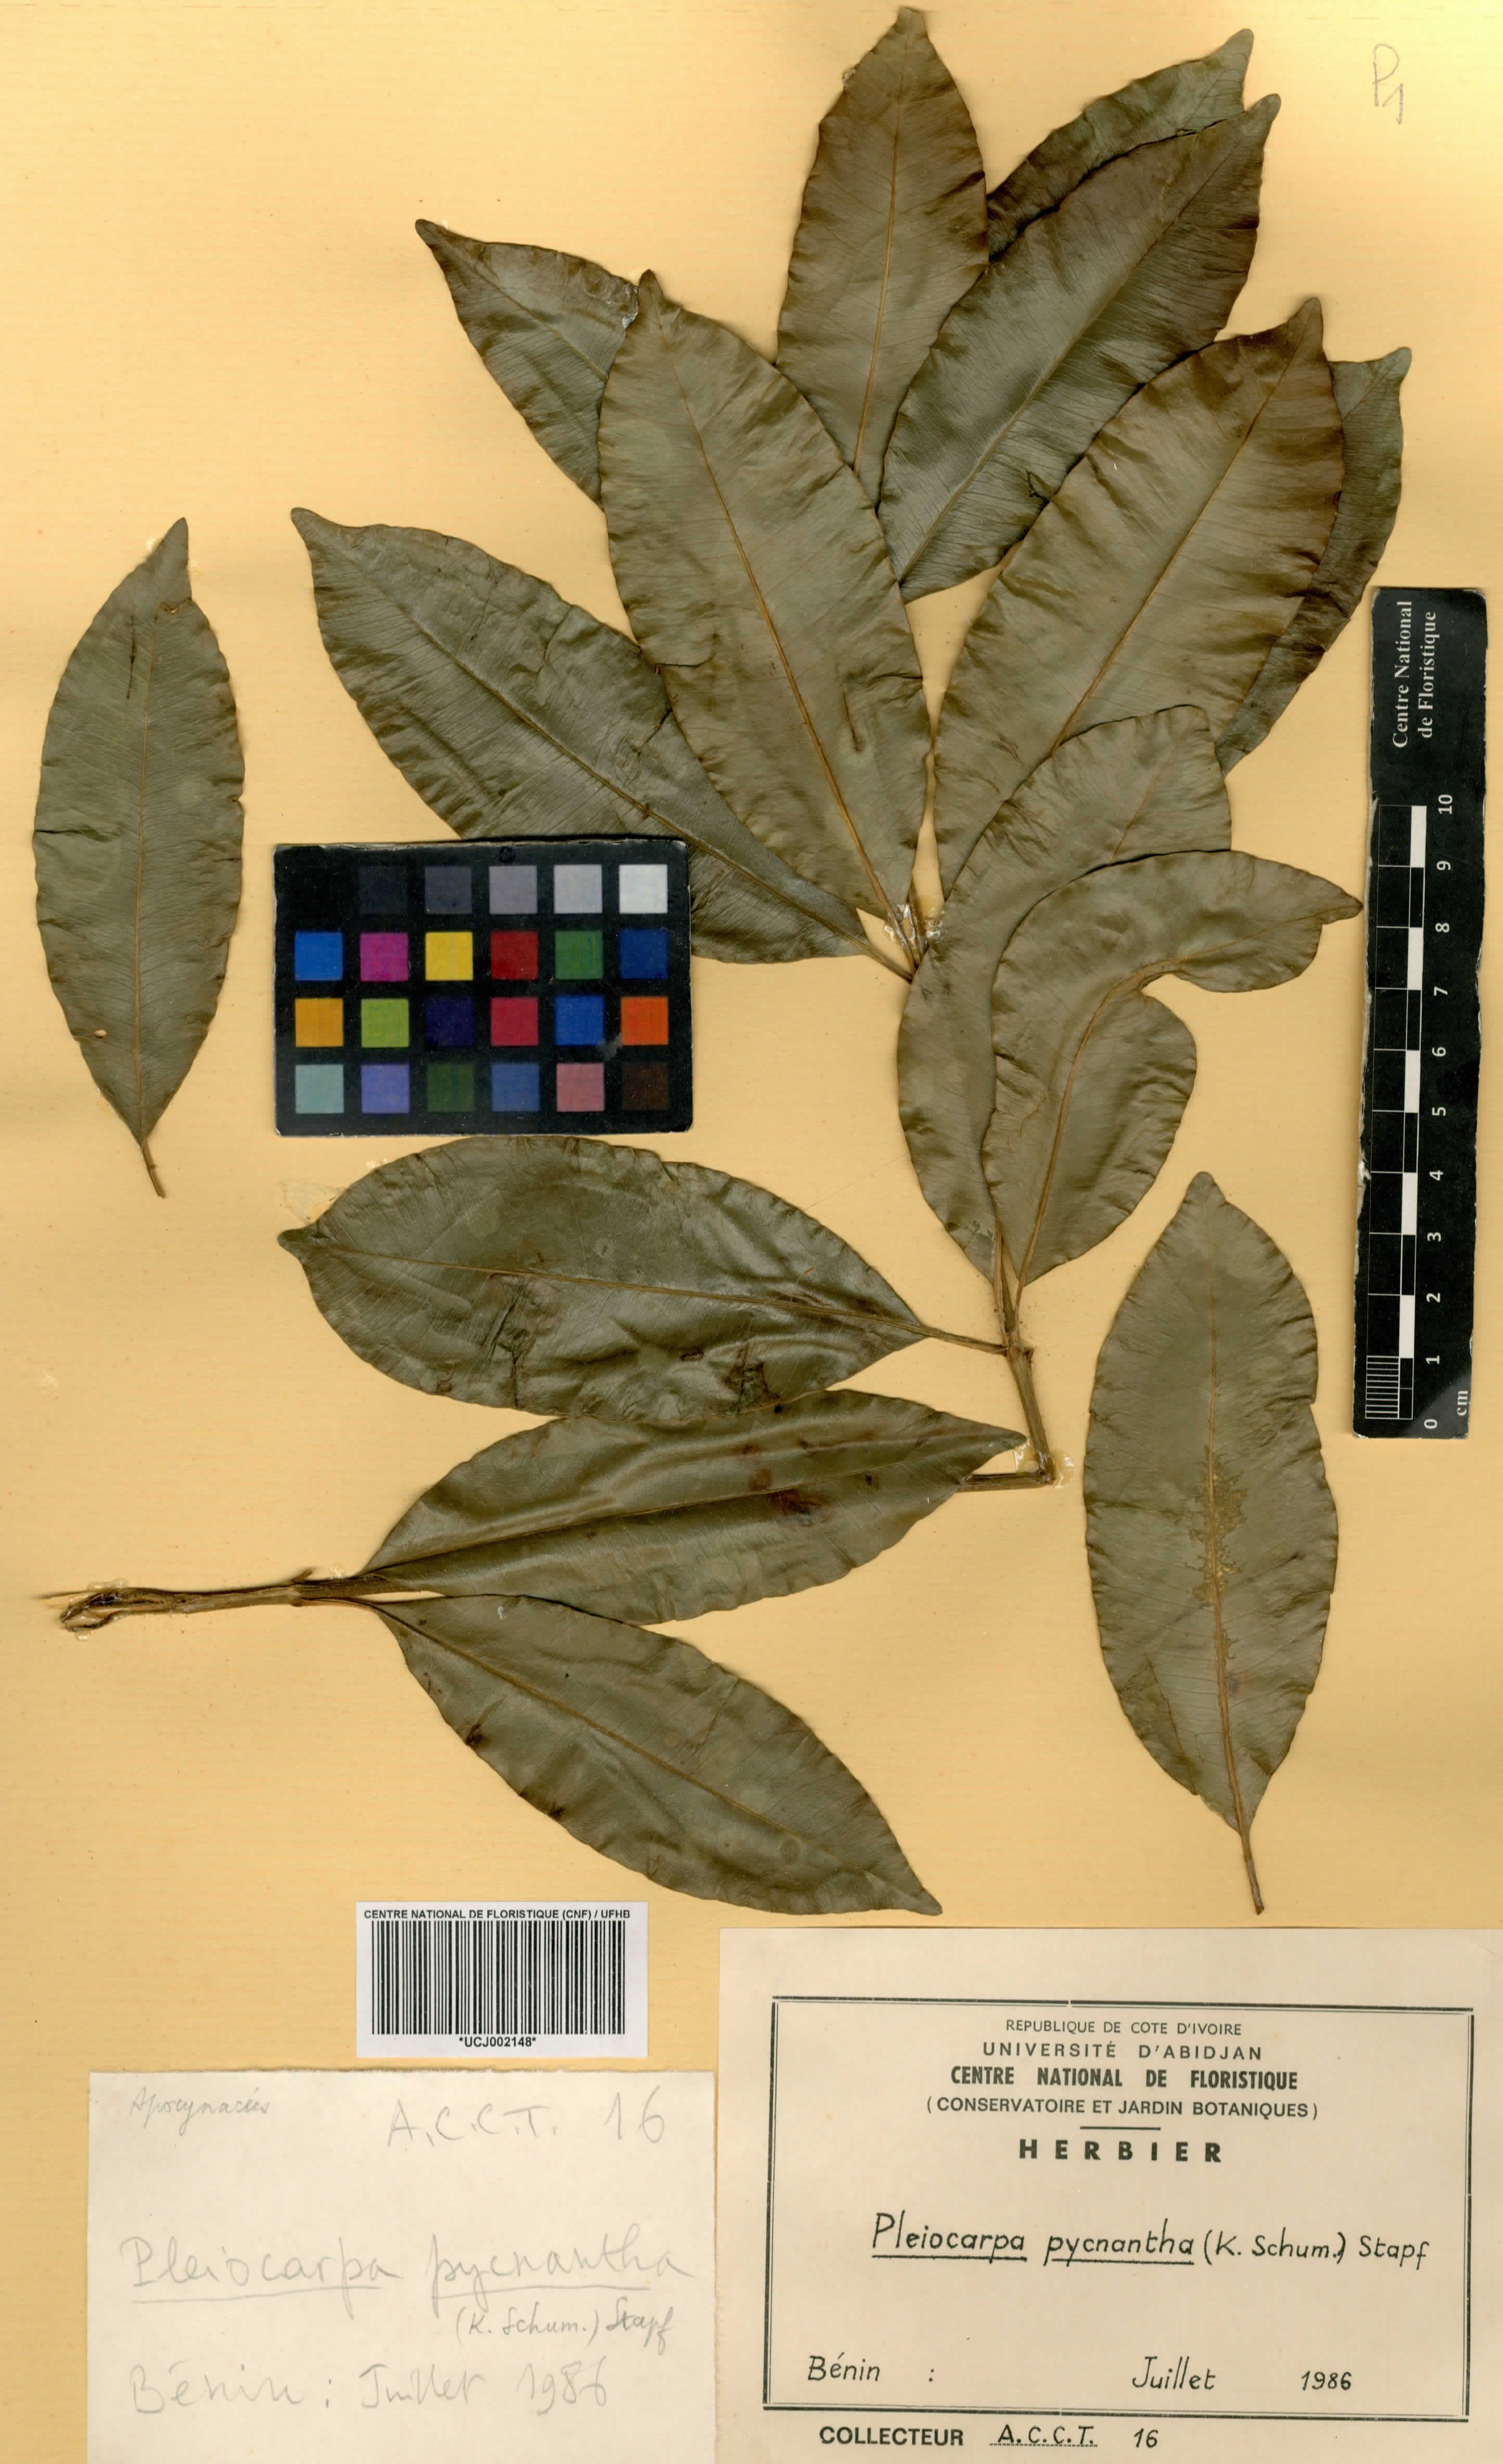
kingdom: Plantae
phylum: Tracheophyta
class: Magnoliopsida
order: Gentianales
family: Apocynaceae
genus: Pleiocarpa
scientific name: Pleiocarpa pycnantha
